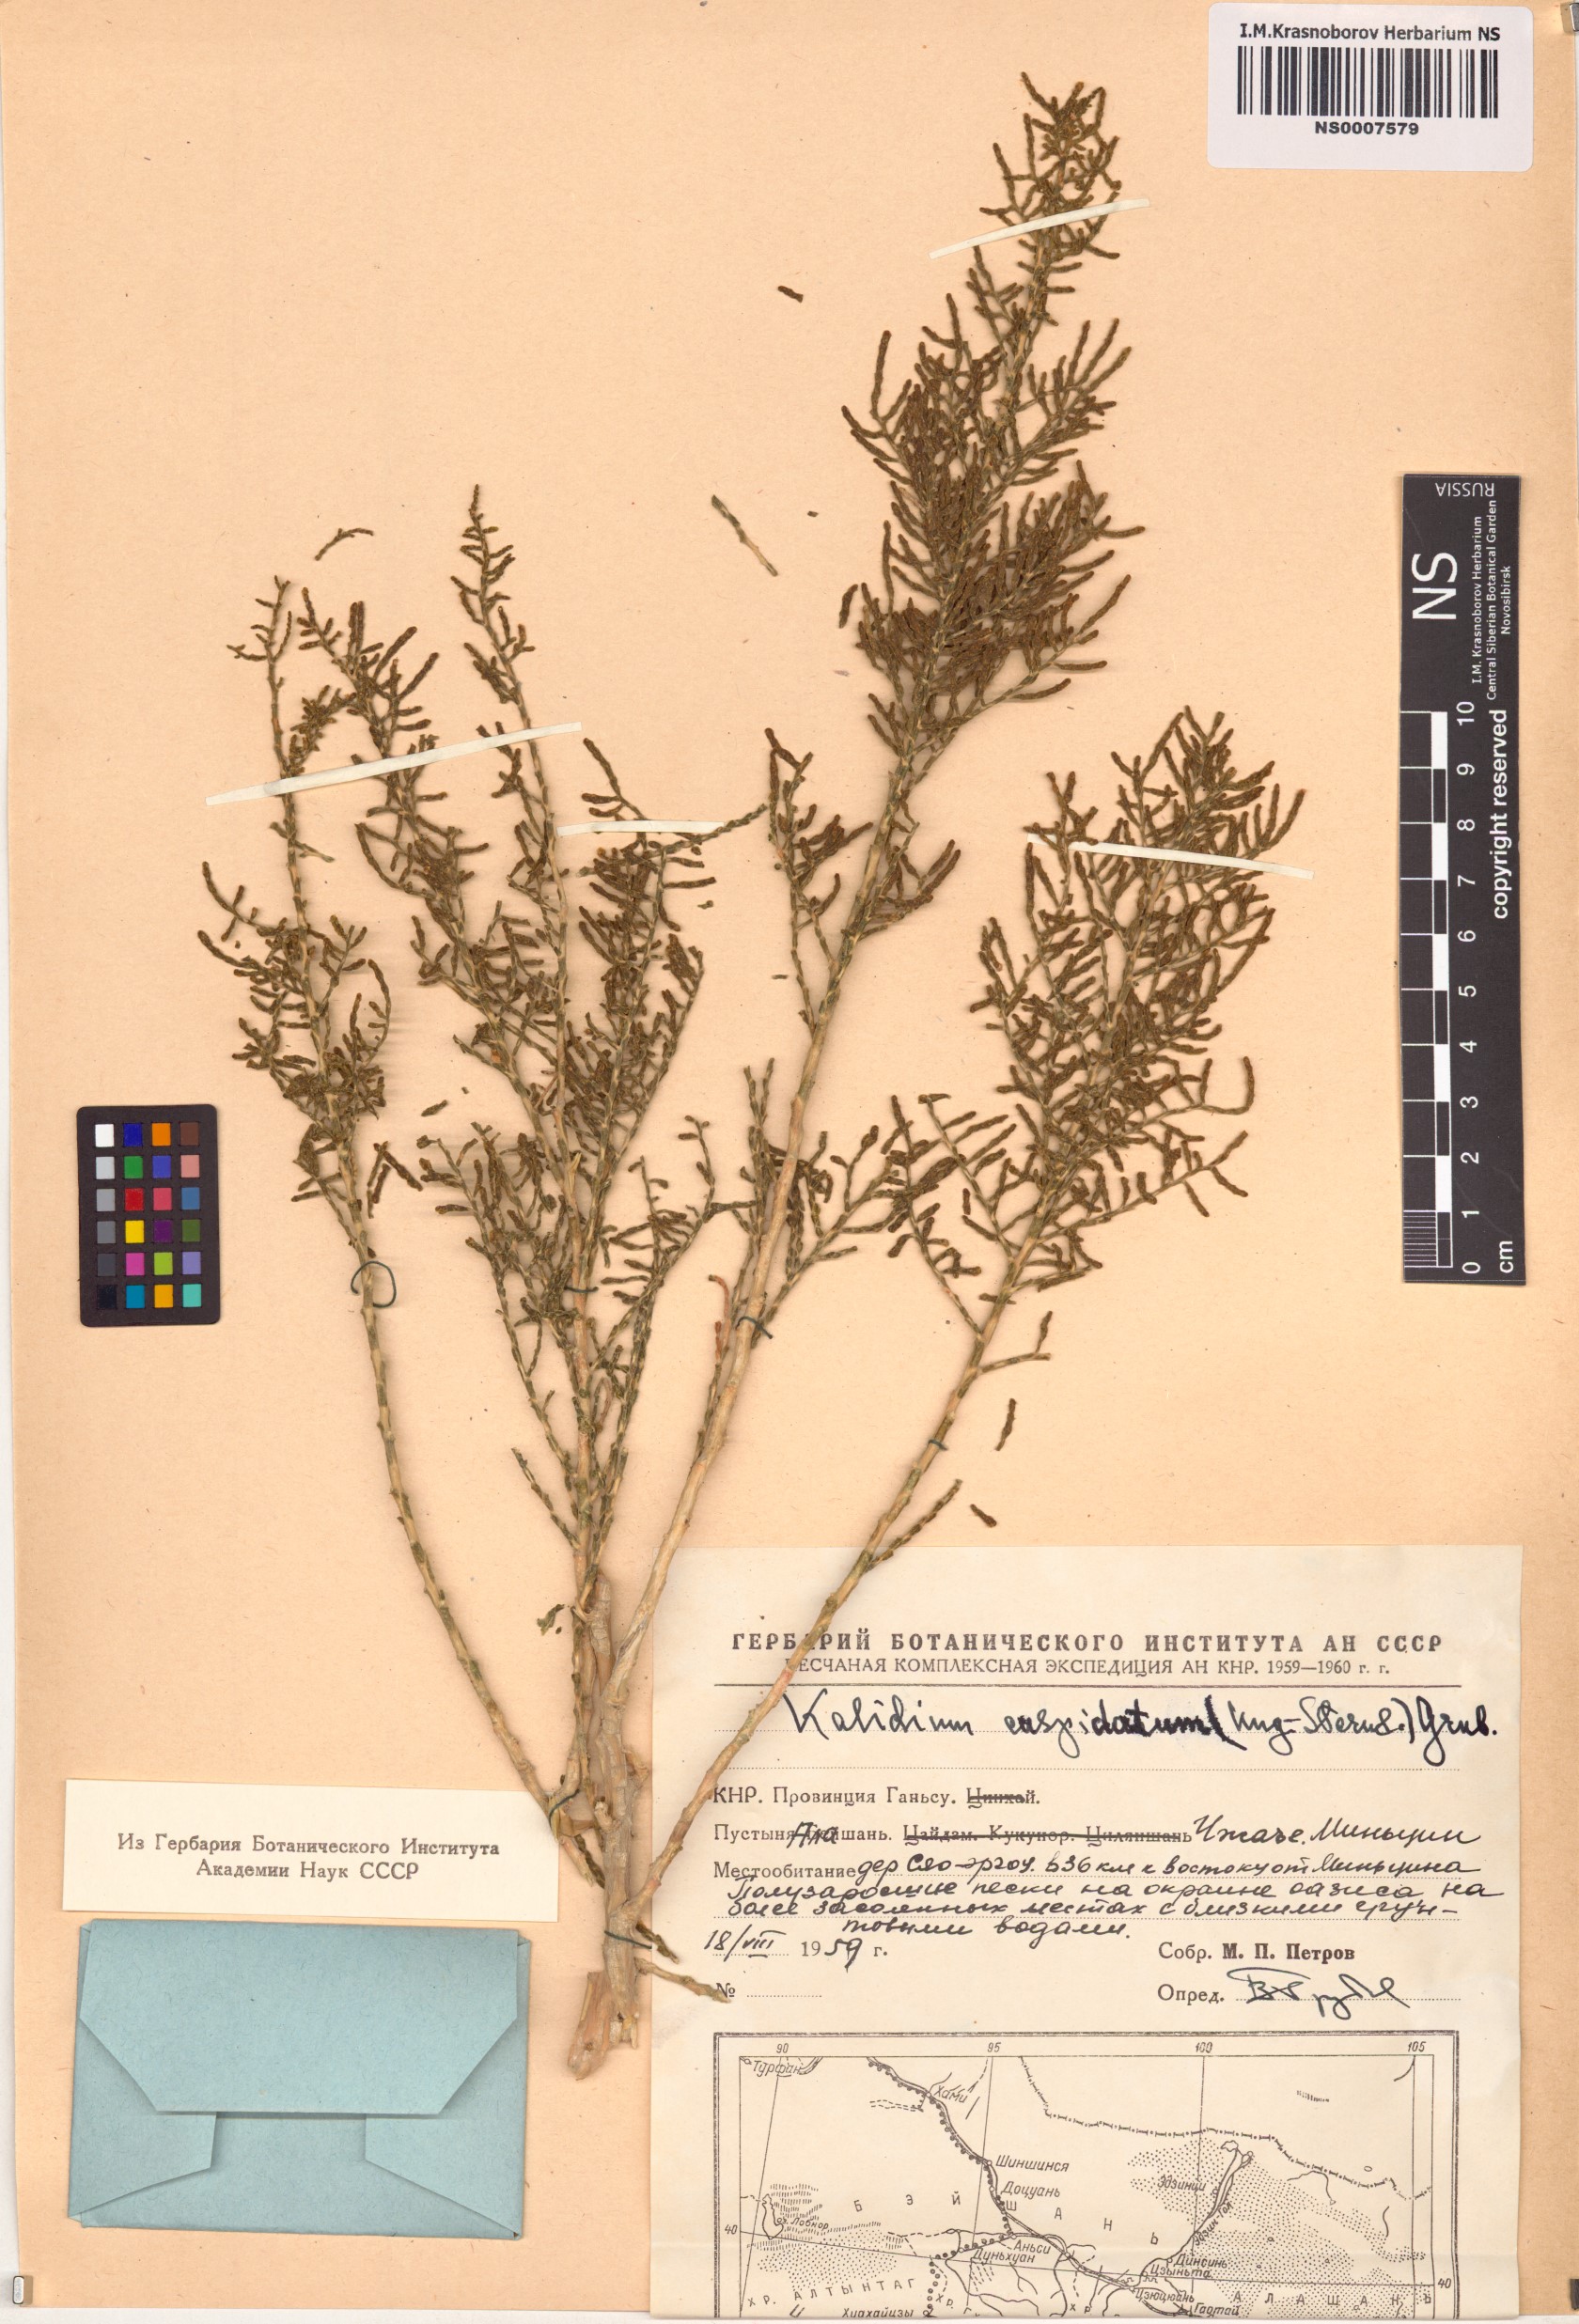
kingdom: Plantae
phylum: Tracheophyta
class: Magnoliopsida
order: Caryophyllales
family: Amaranthaceae
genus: Kalidium
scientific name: Kalidium cuspidatum
